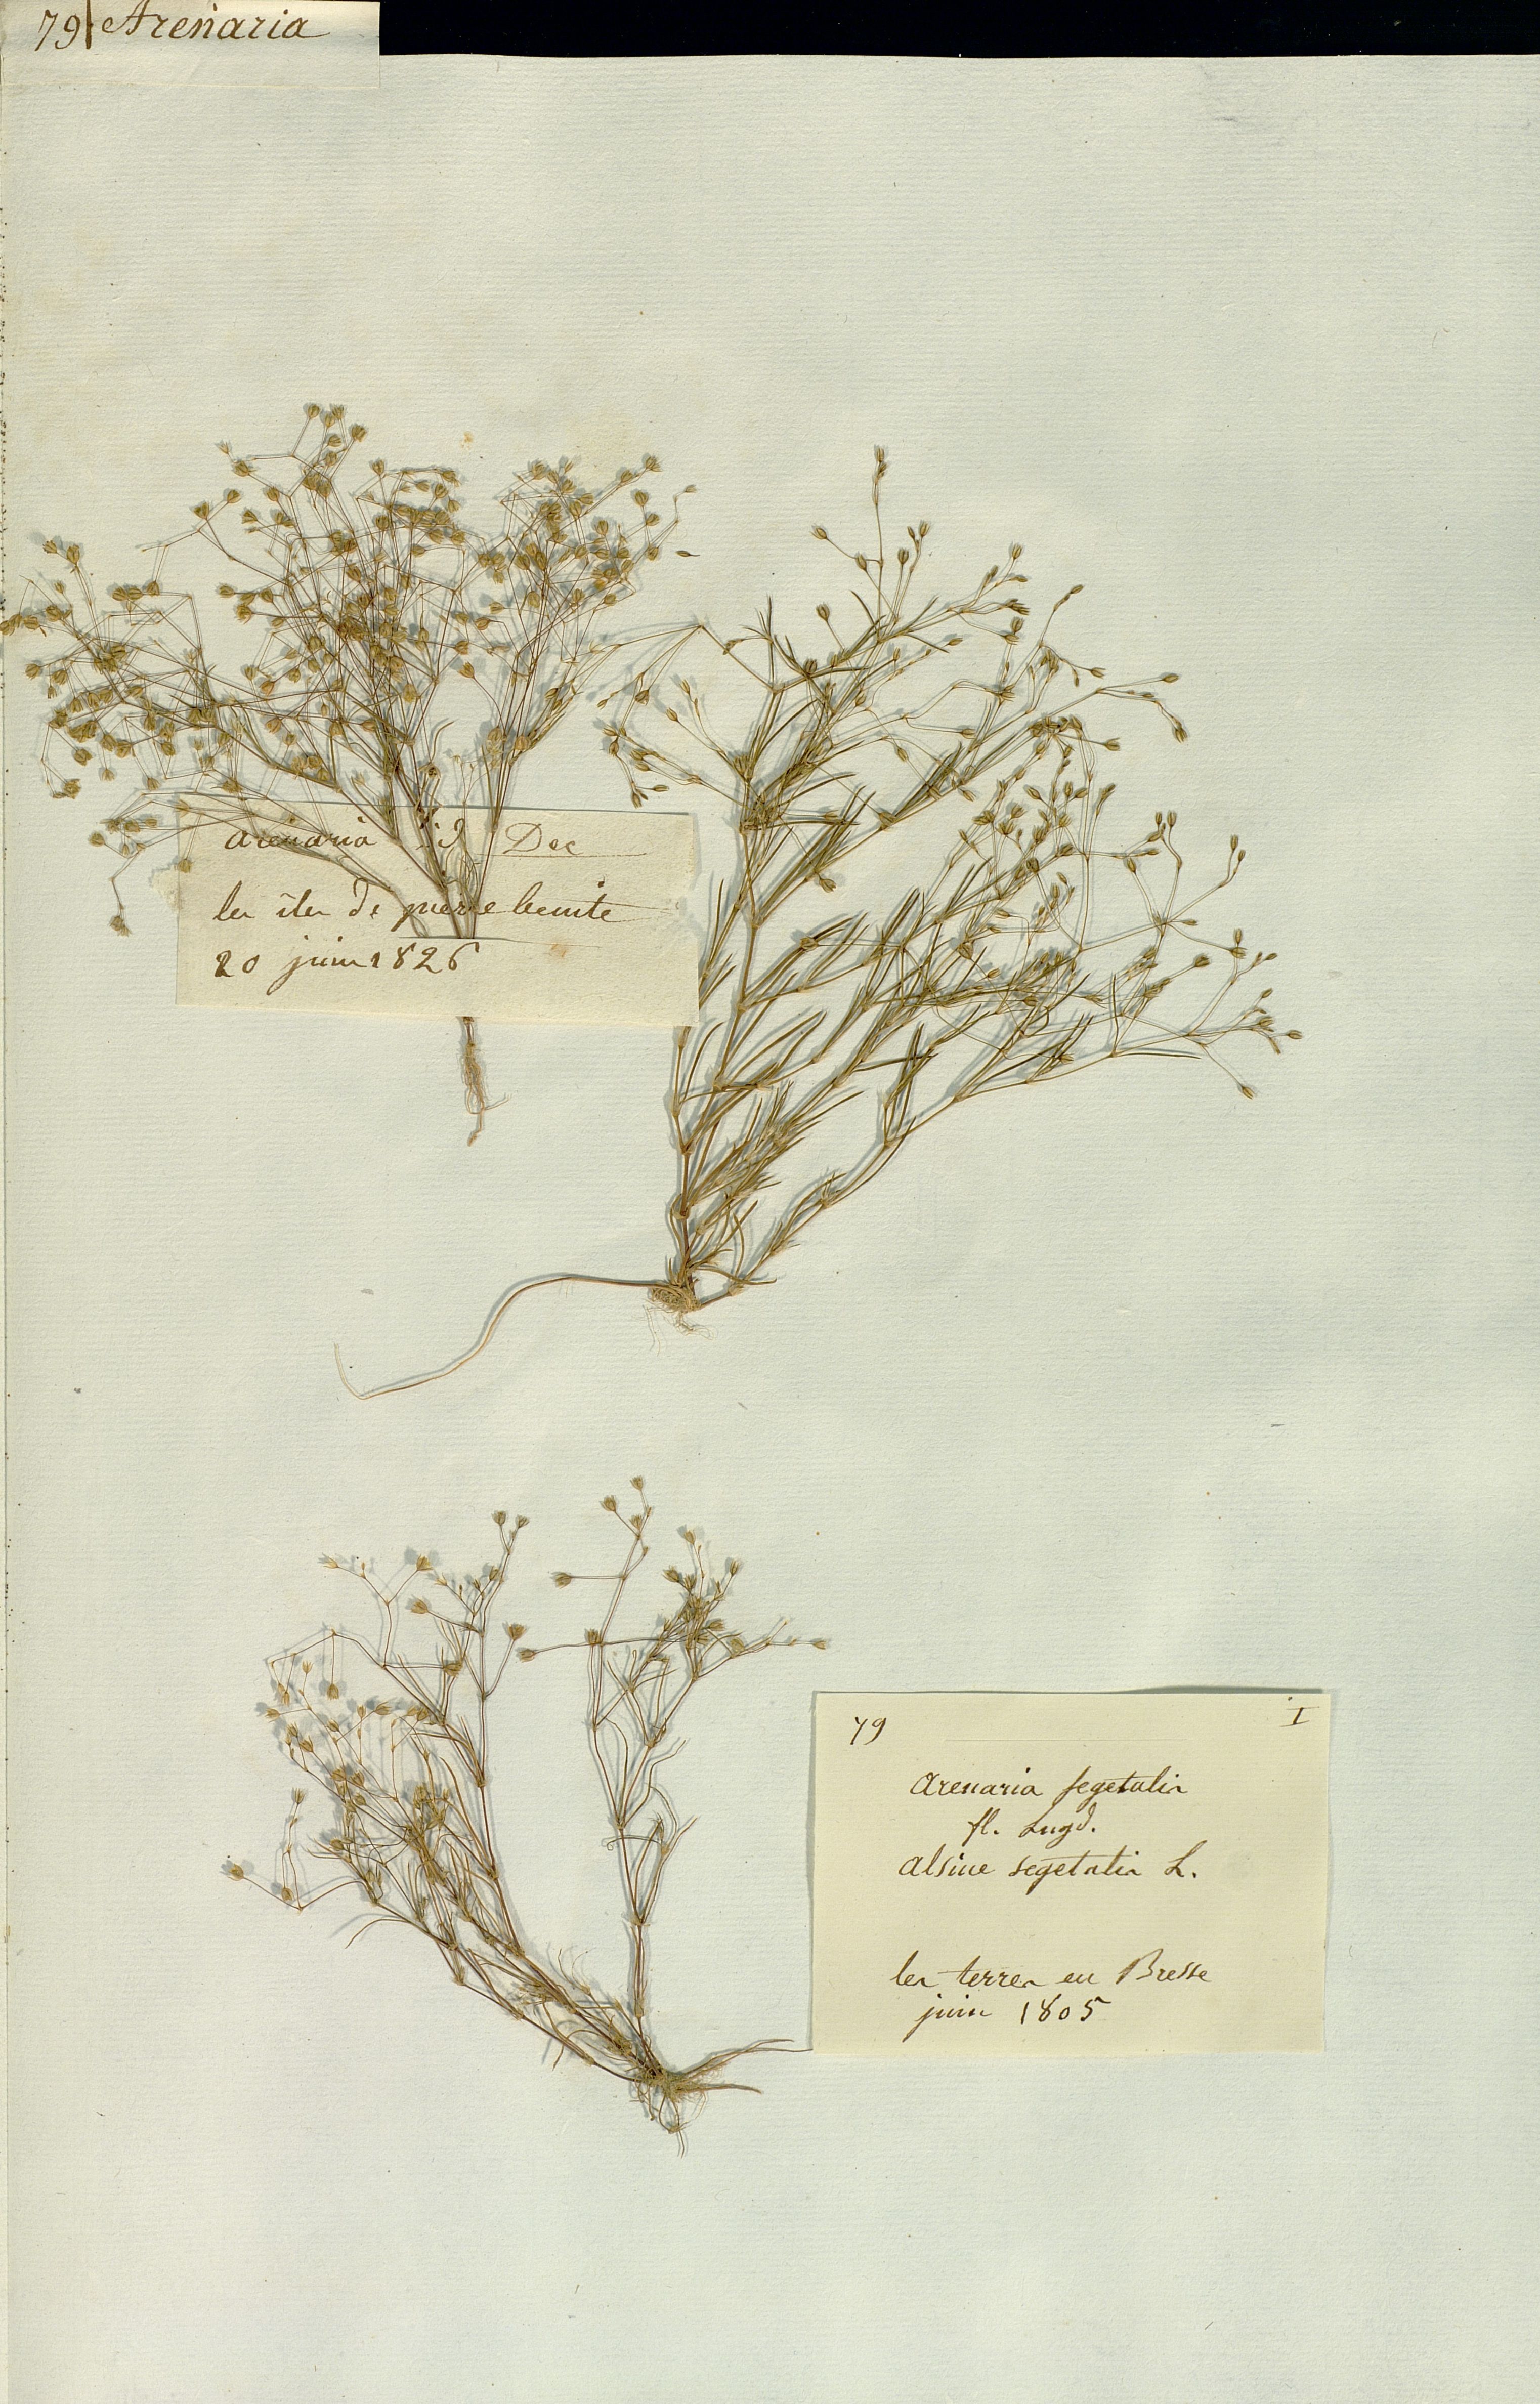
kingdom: Plantae
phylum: Tracheophyta
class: Magnoliopsida
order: Caryophyllales
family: Caryophyllaceae
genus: Spergularia
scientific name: Spergularia segetalis
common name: Corn sand spurrey
